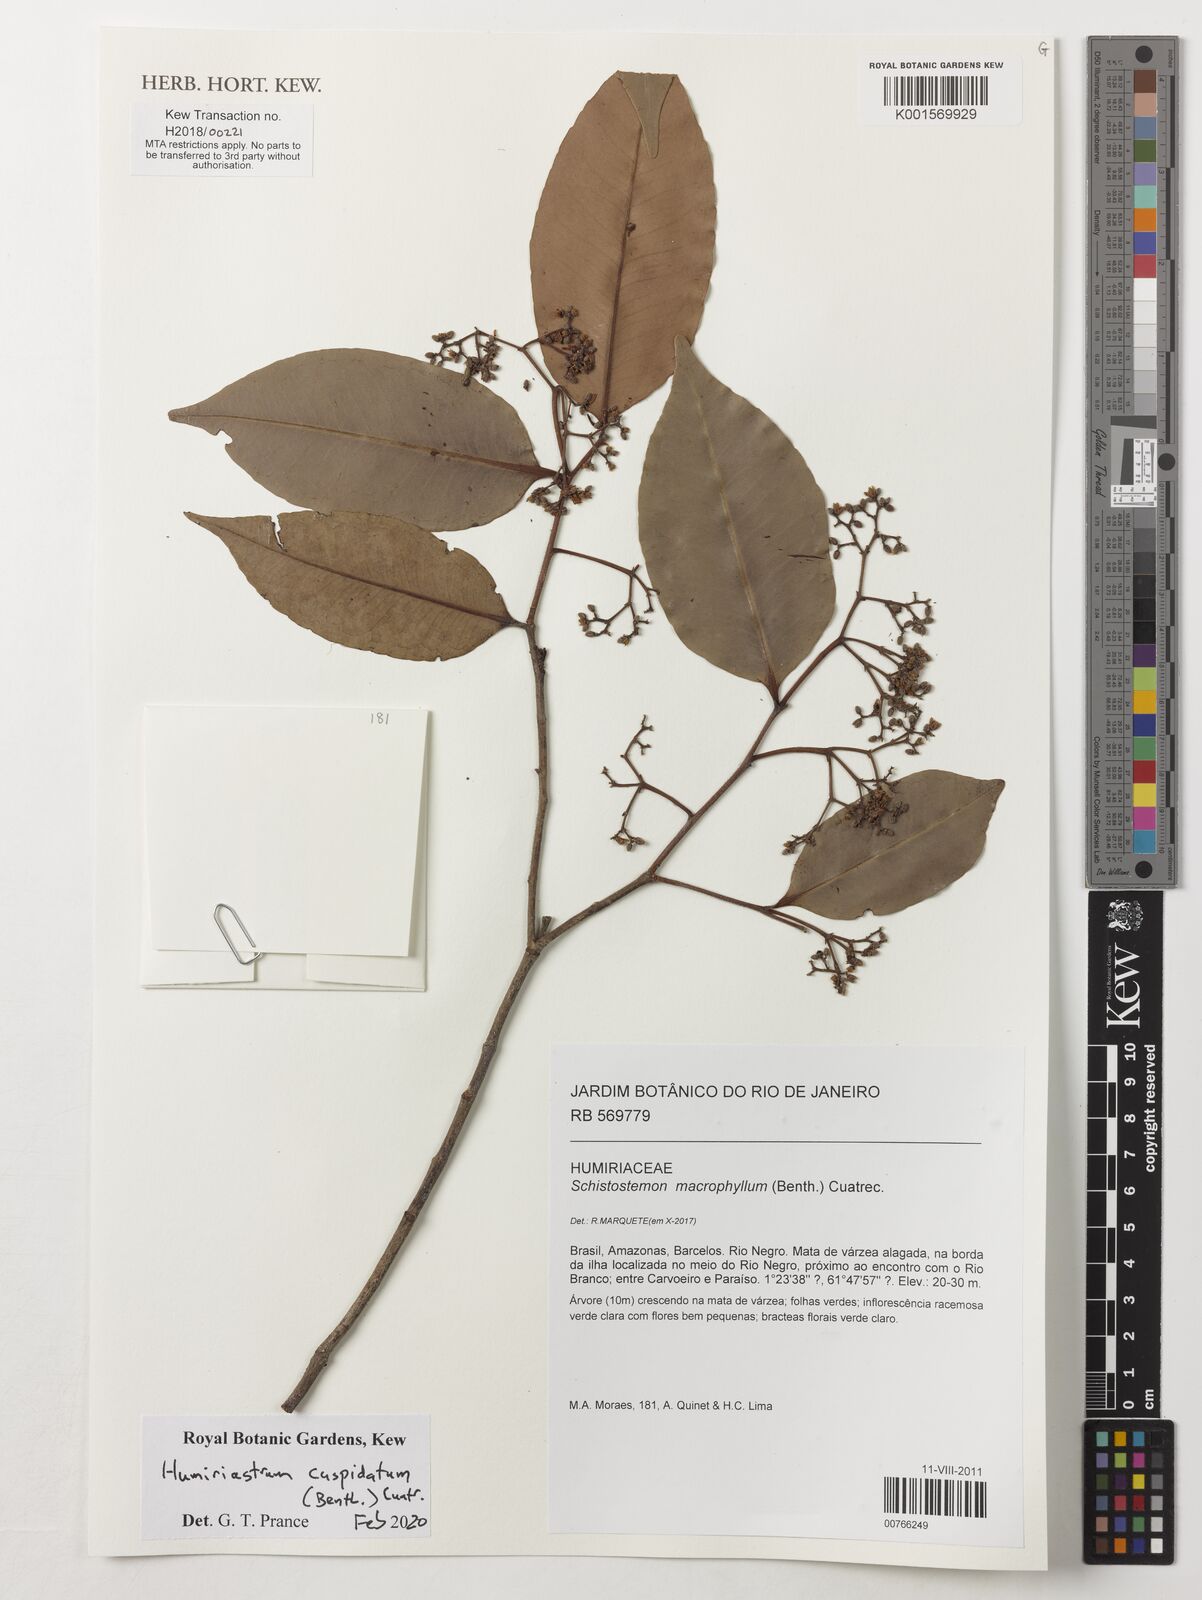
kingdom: Plantae
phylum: Tracheophyta
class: Magnoliopsida
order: Malpighiales
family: Humiriaceae
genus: Humiriastrum
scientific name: Humiriastrum cuspidatum
